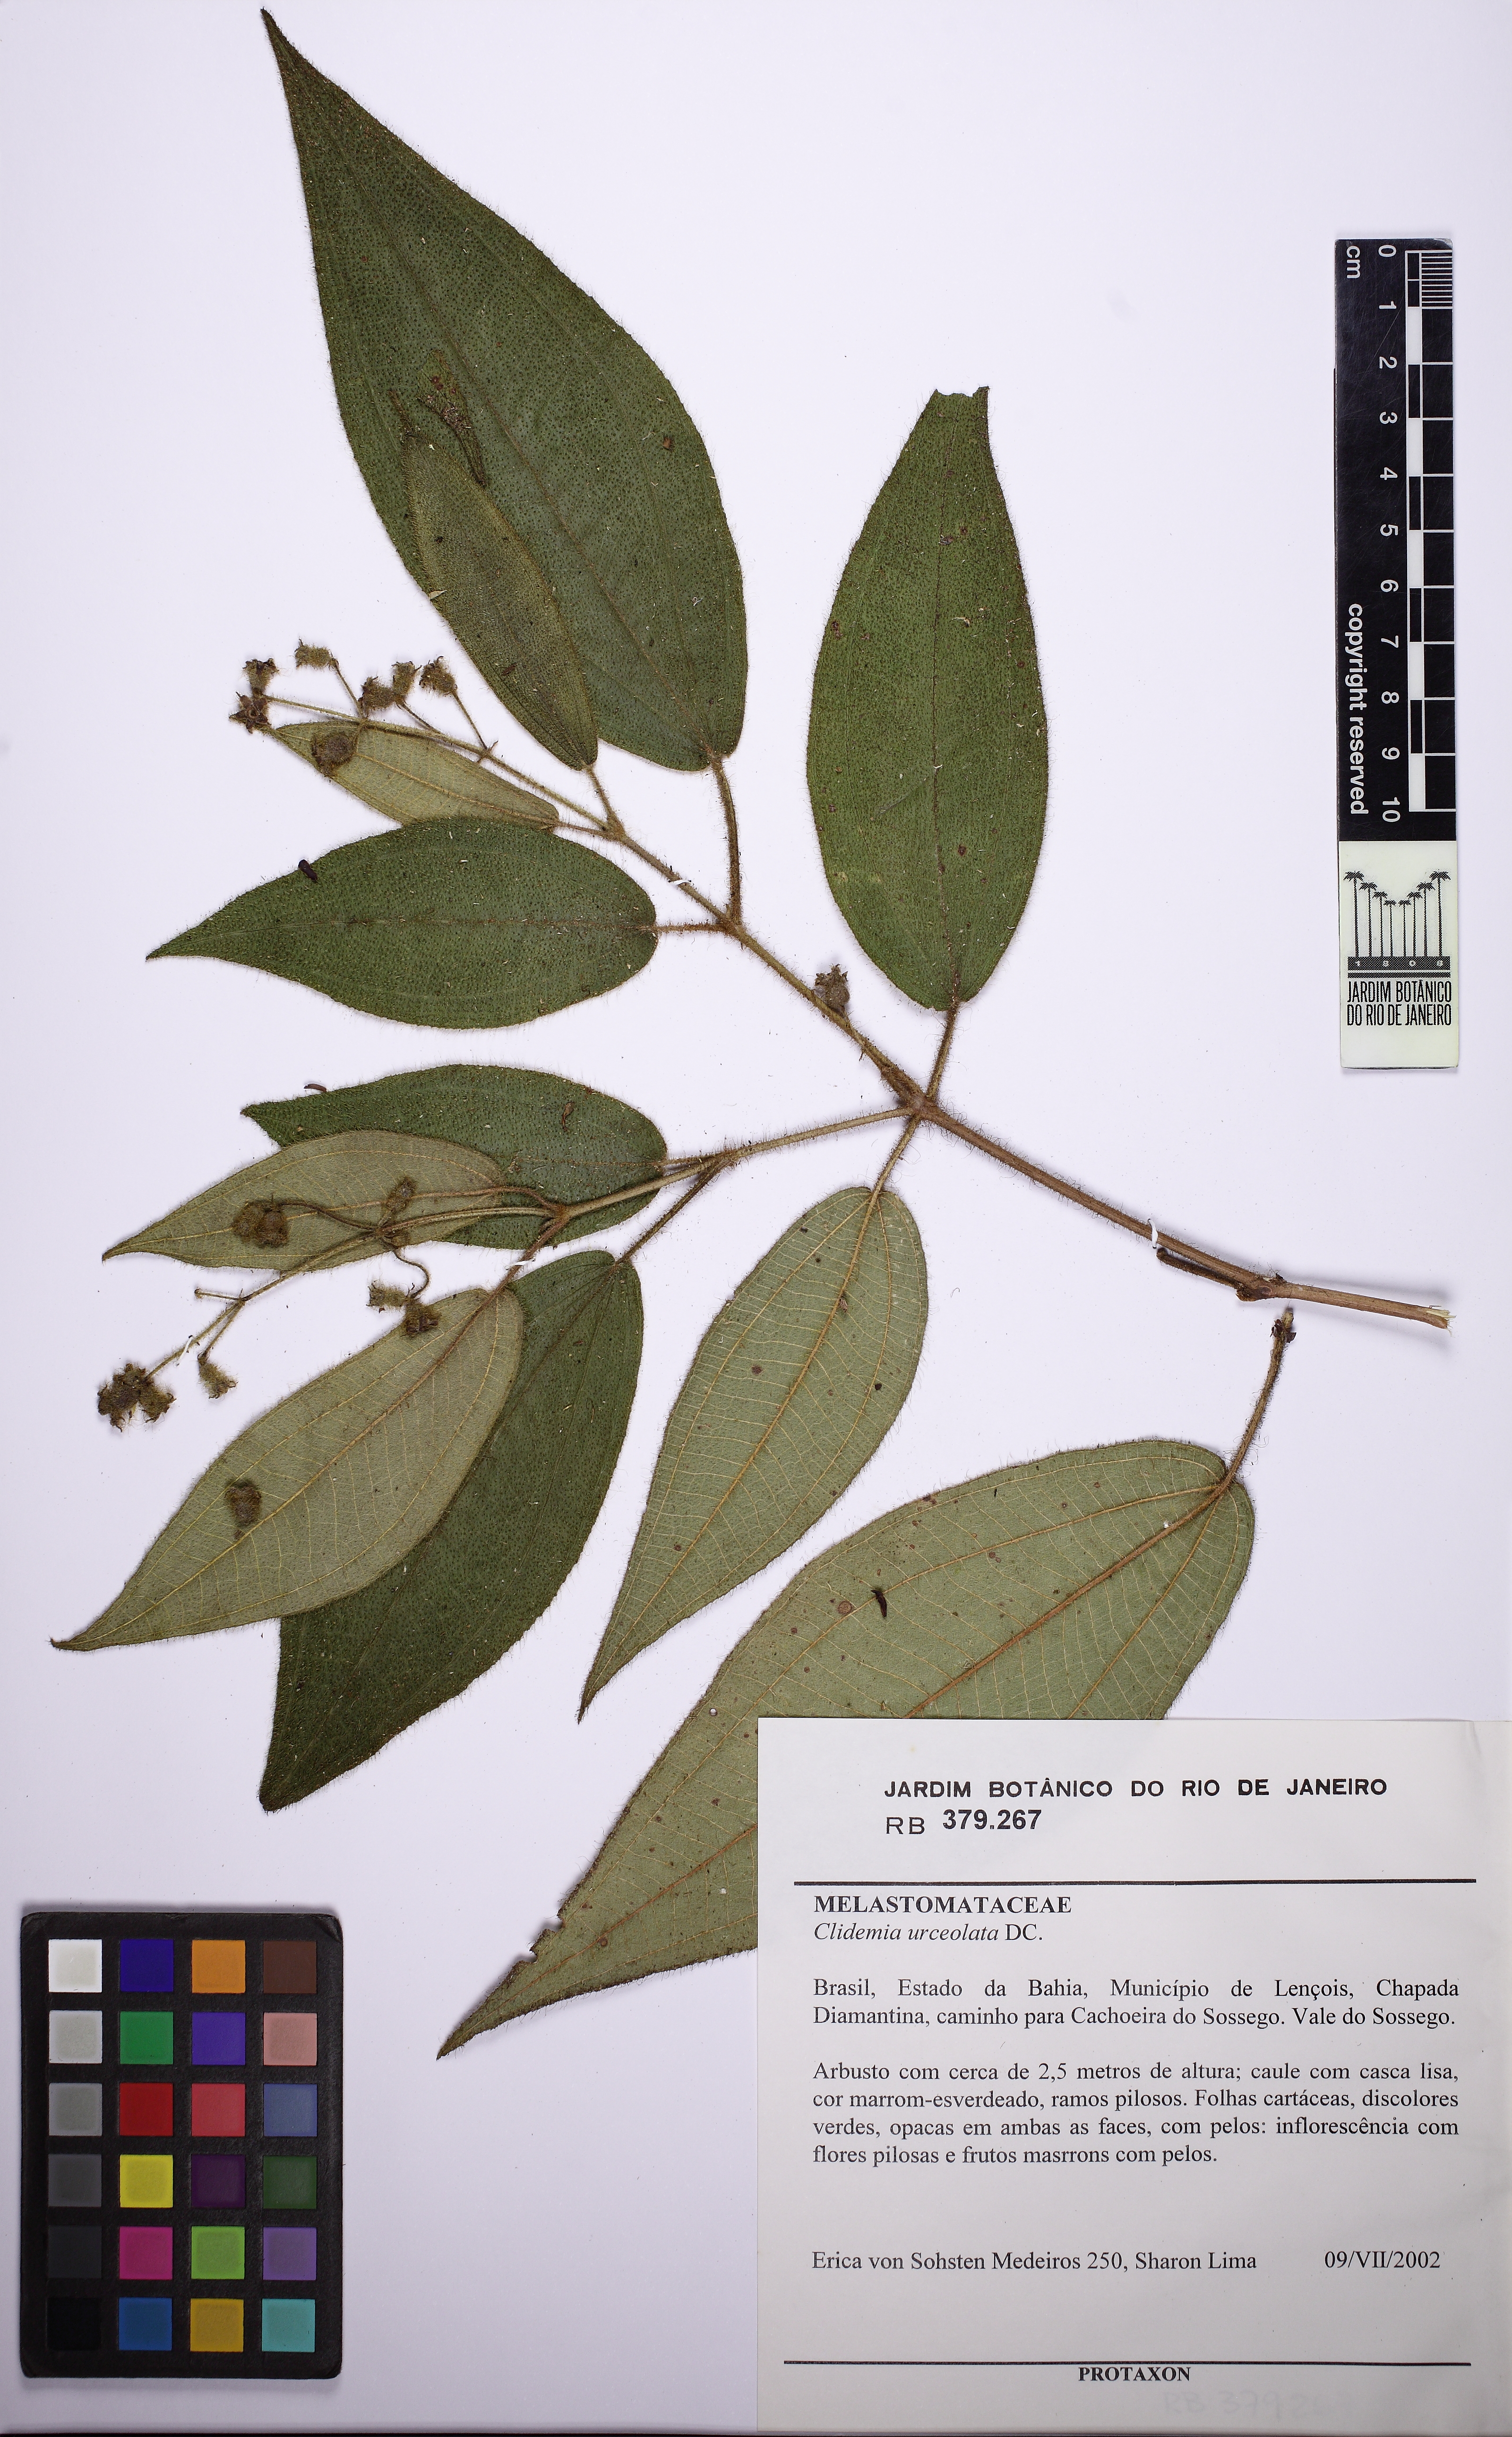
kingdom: Plantae
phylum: Tracheophyta
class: Magnoliopsida
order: Myrtales
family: Melastomataceae
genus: Miconia
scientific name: Miconia neourceolata
